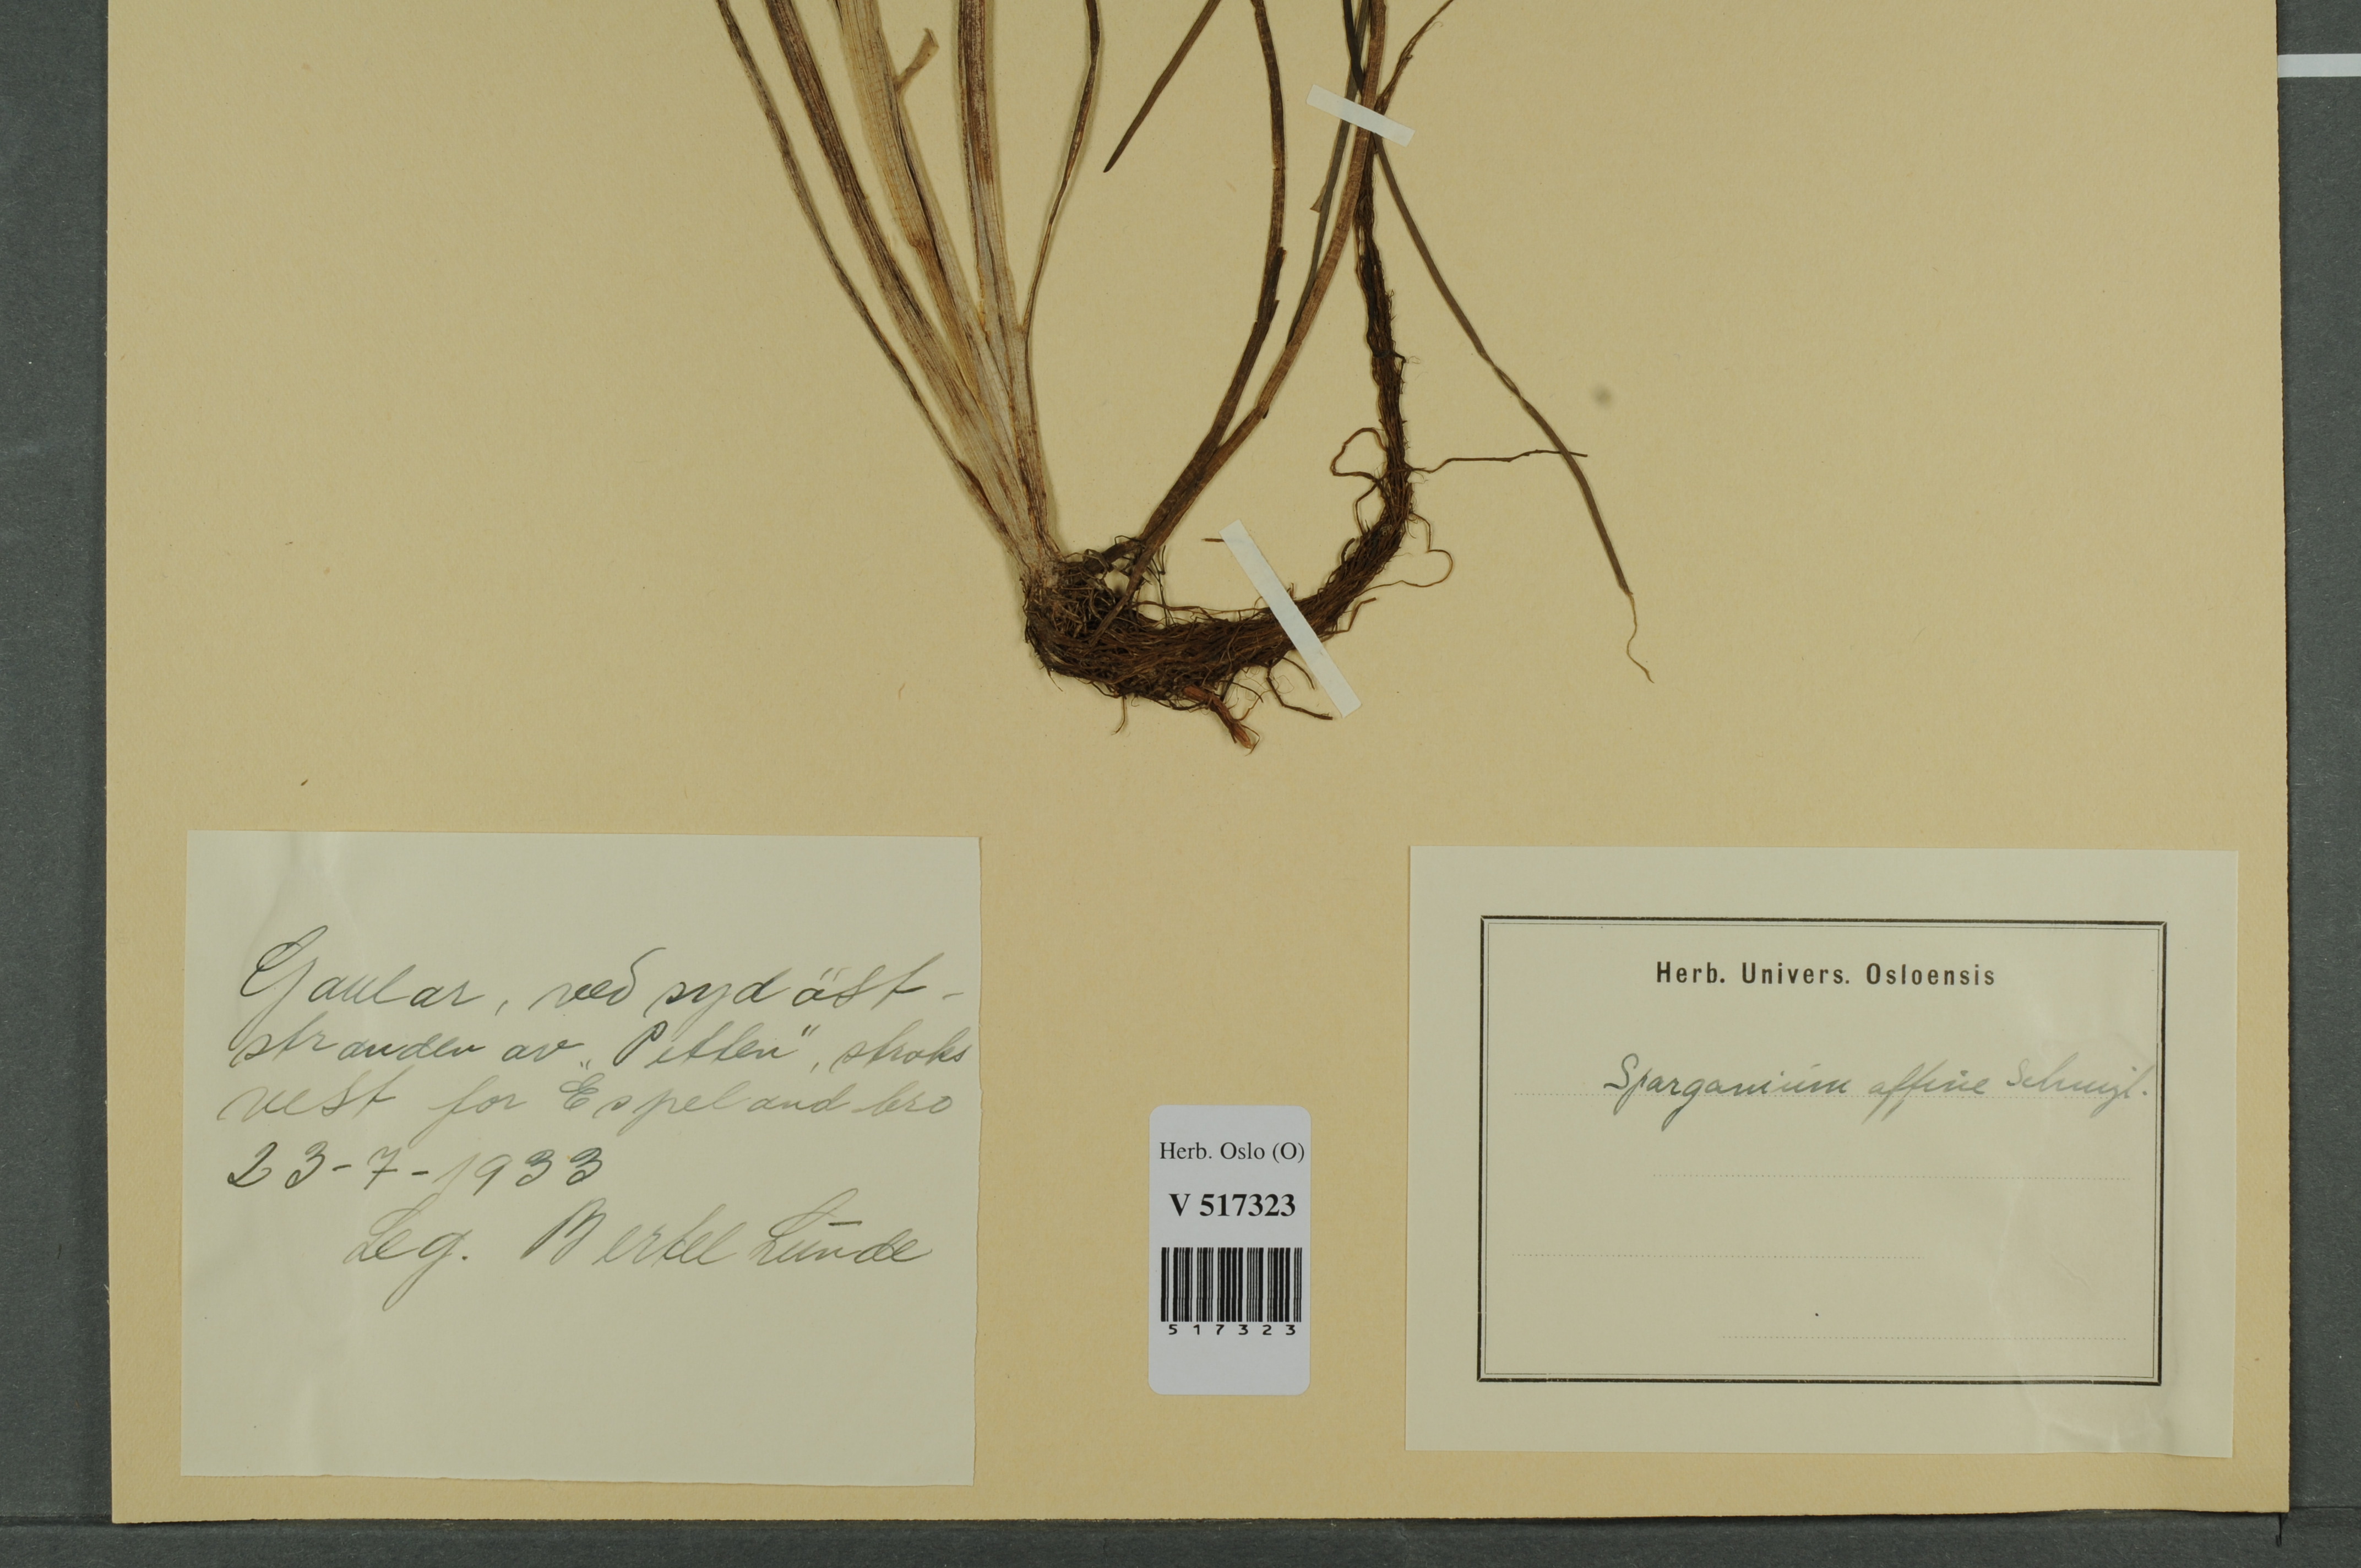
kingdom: Plantae
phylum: Tracheophyta
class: Liliopsida
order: Poales
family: Typhaceae
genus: Sparganium
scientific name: Sparganium angustifolium
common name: Floating bur-reed
